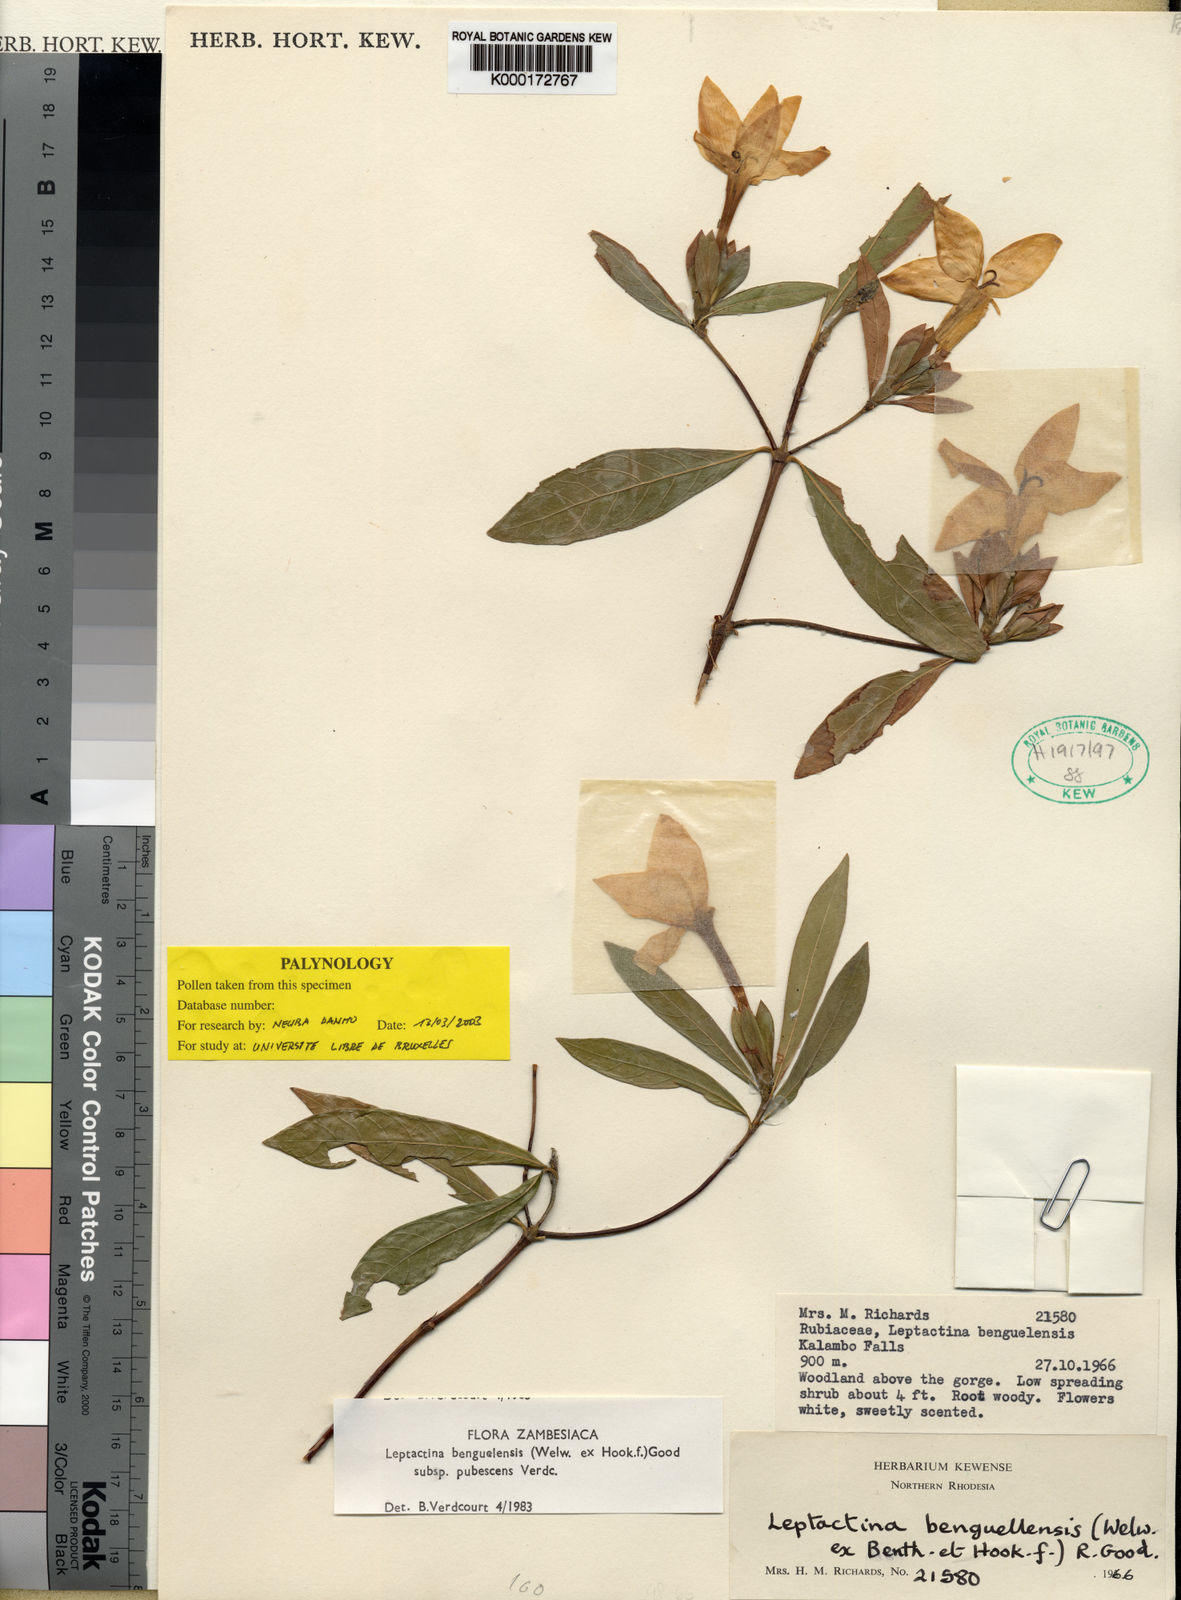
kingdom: Plantae
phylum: Tracheophyta
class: Magnoliopsida
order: Gentianales
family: Rubiaceae
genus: Leptactina
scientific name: Leptactina benguelensis
